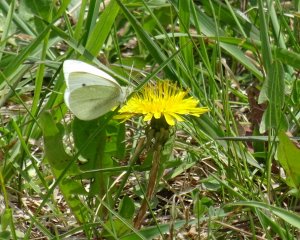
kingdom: Animalia
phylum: Arthropoda
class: Insecta
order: Lepidoptera
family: Pieridae
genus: Pieris
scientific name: Pieris rapae
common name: Cabbage White
